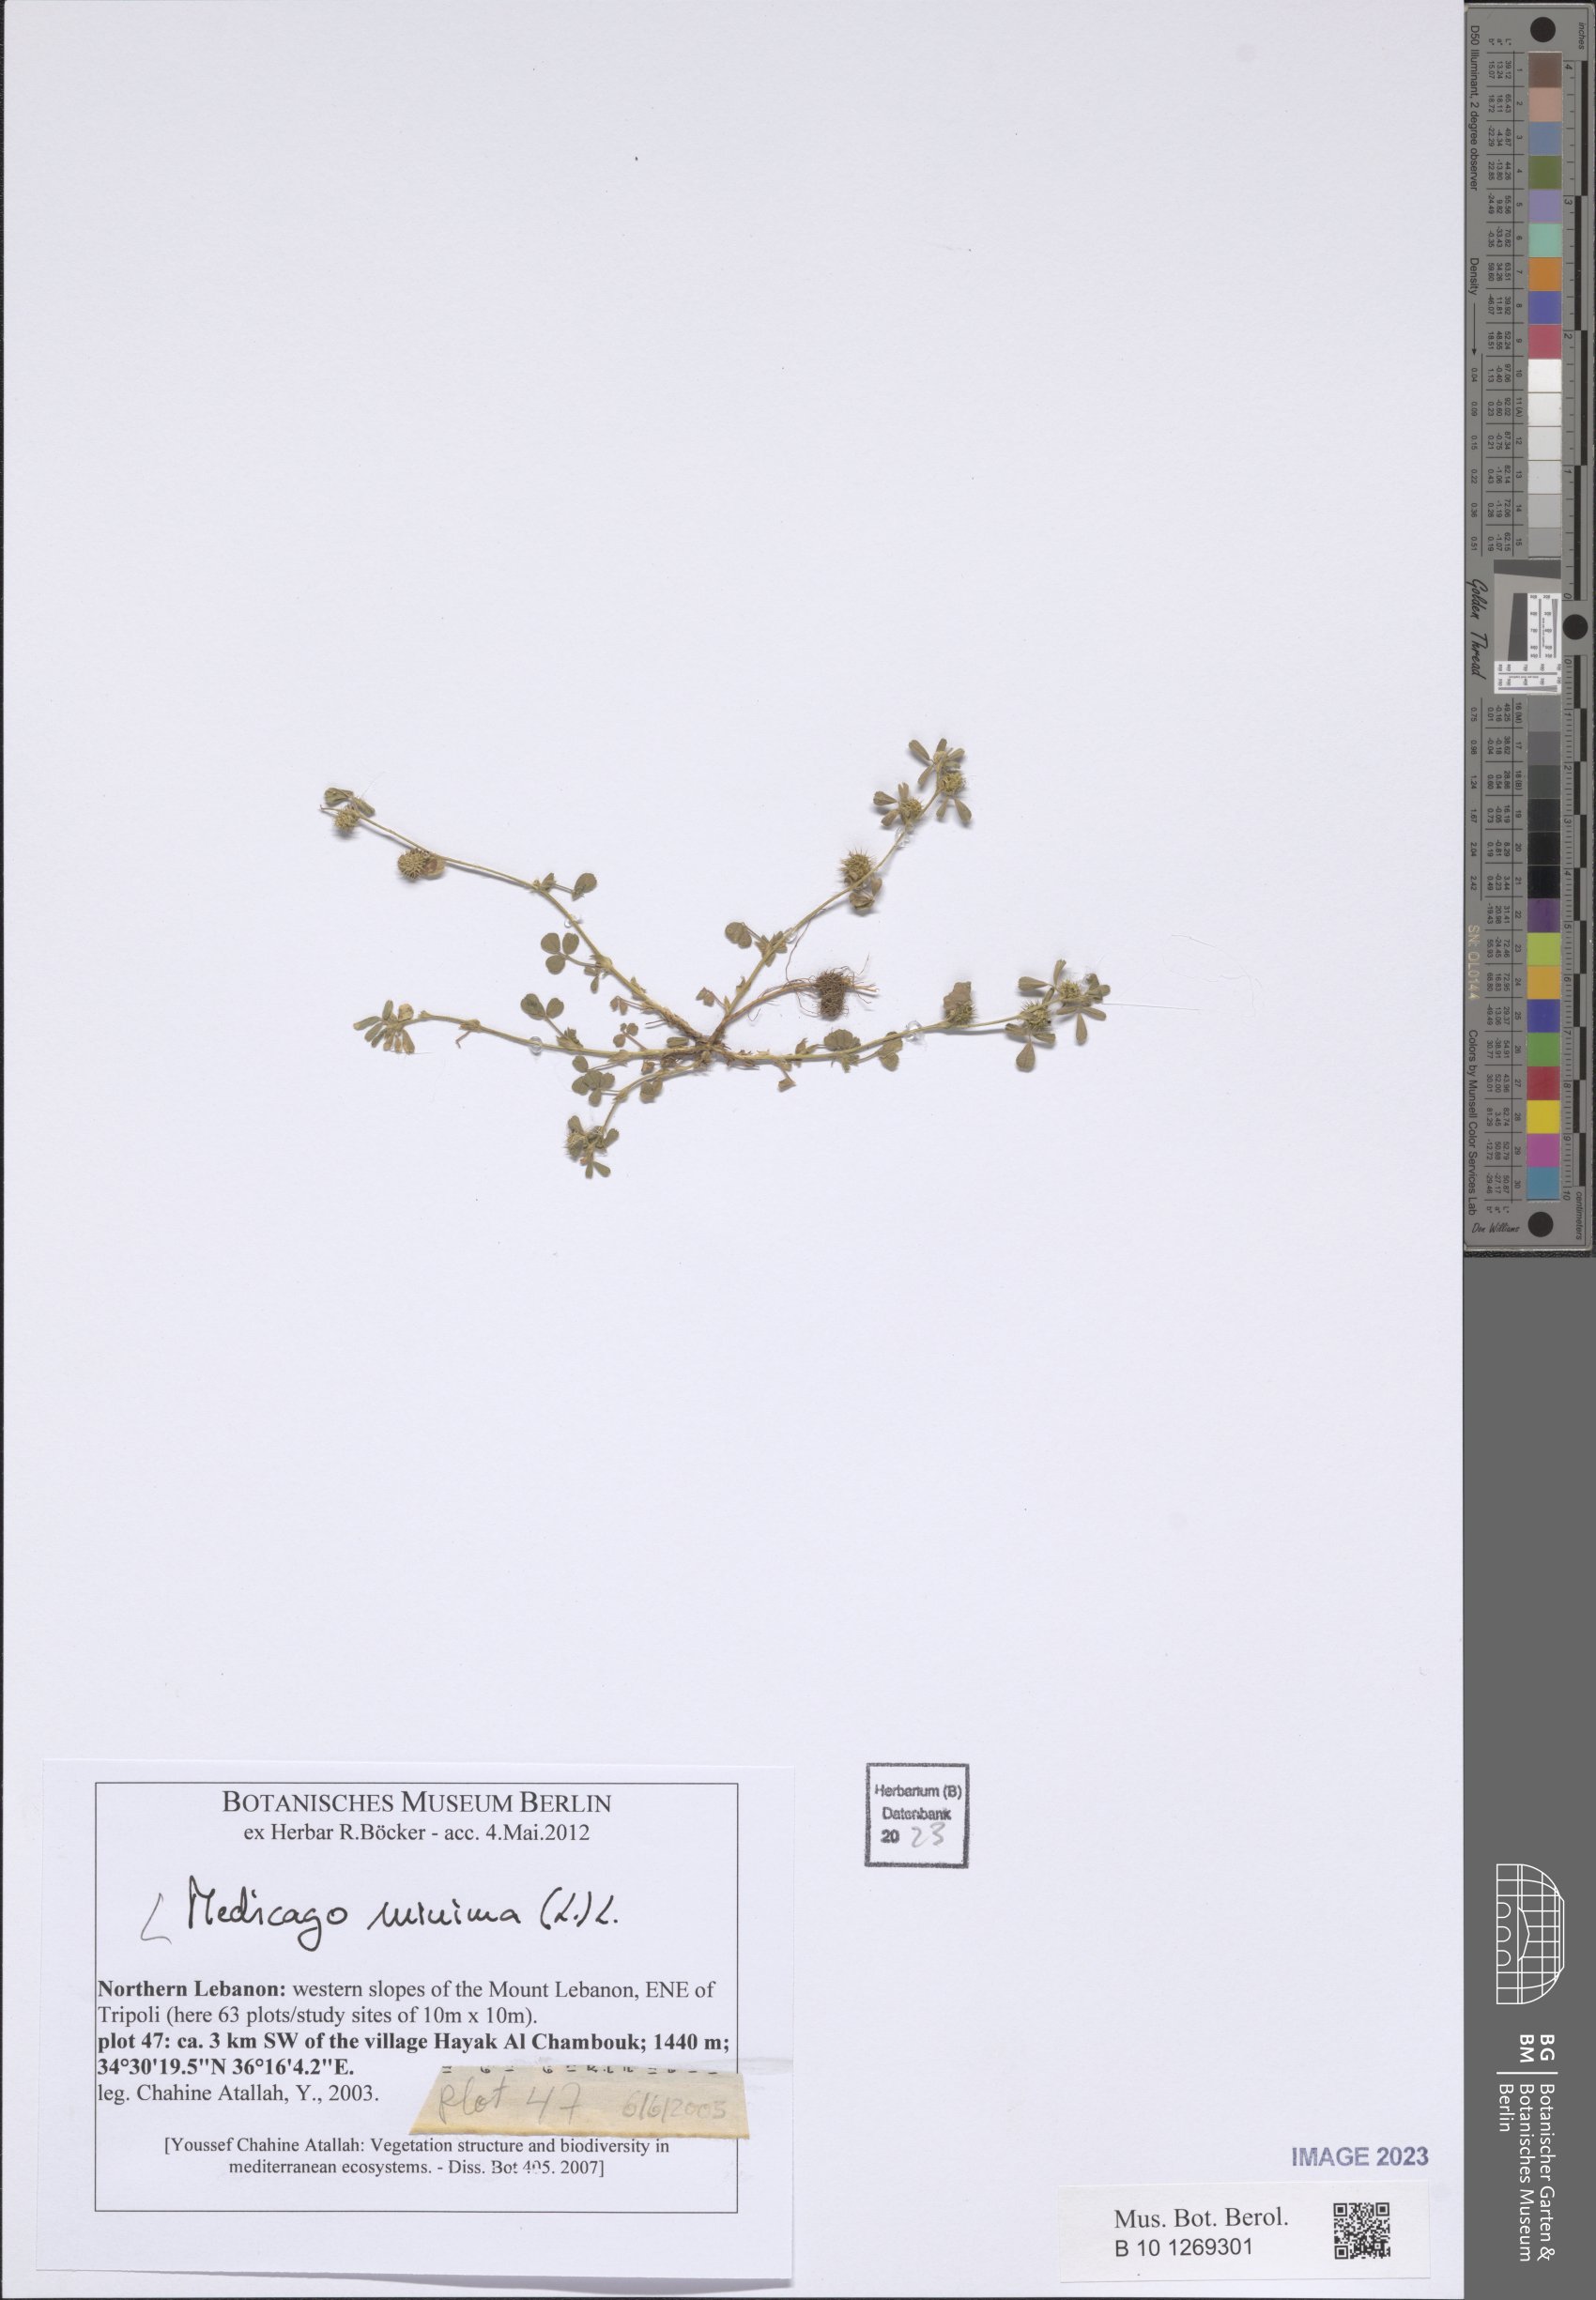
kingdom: Plantae
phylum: Tracheophyta
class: Magnoliopsida
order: Fabales
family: Fabaceae
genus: Medicago
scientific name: Medicago minima
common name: Little bur-clover
